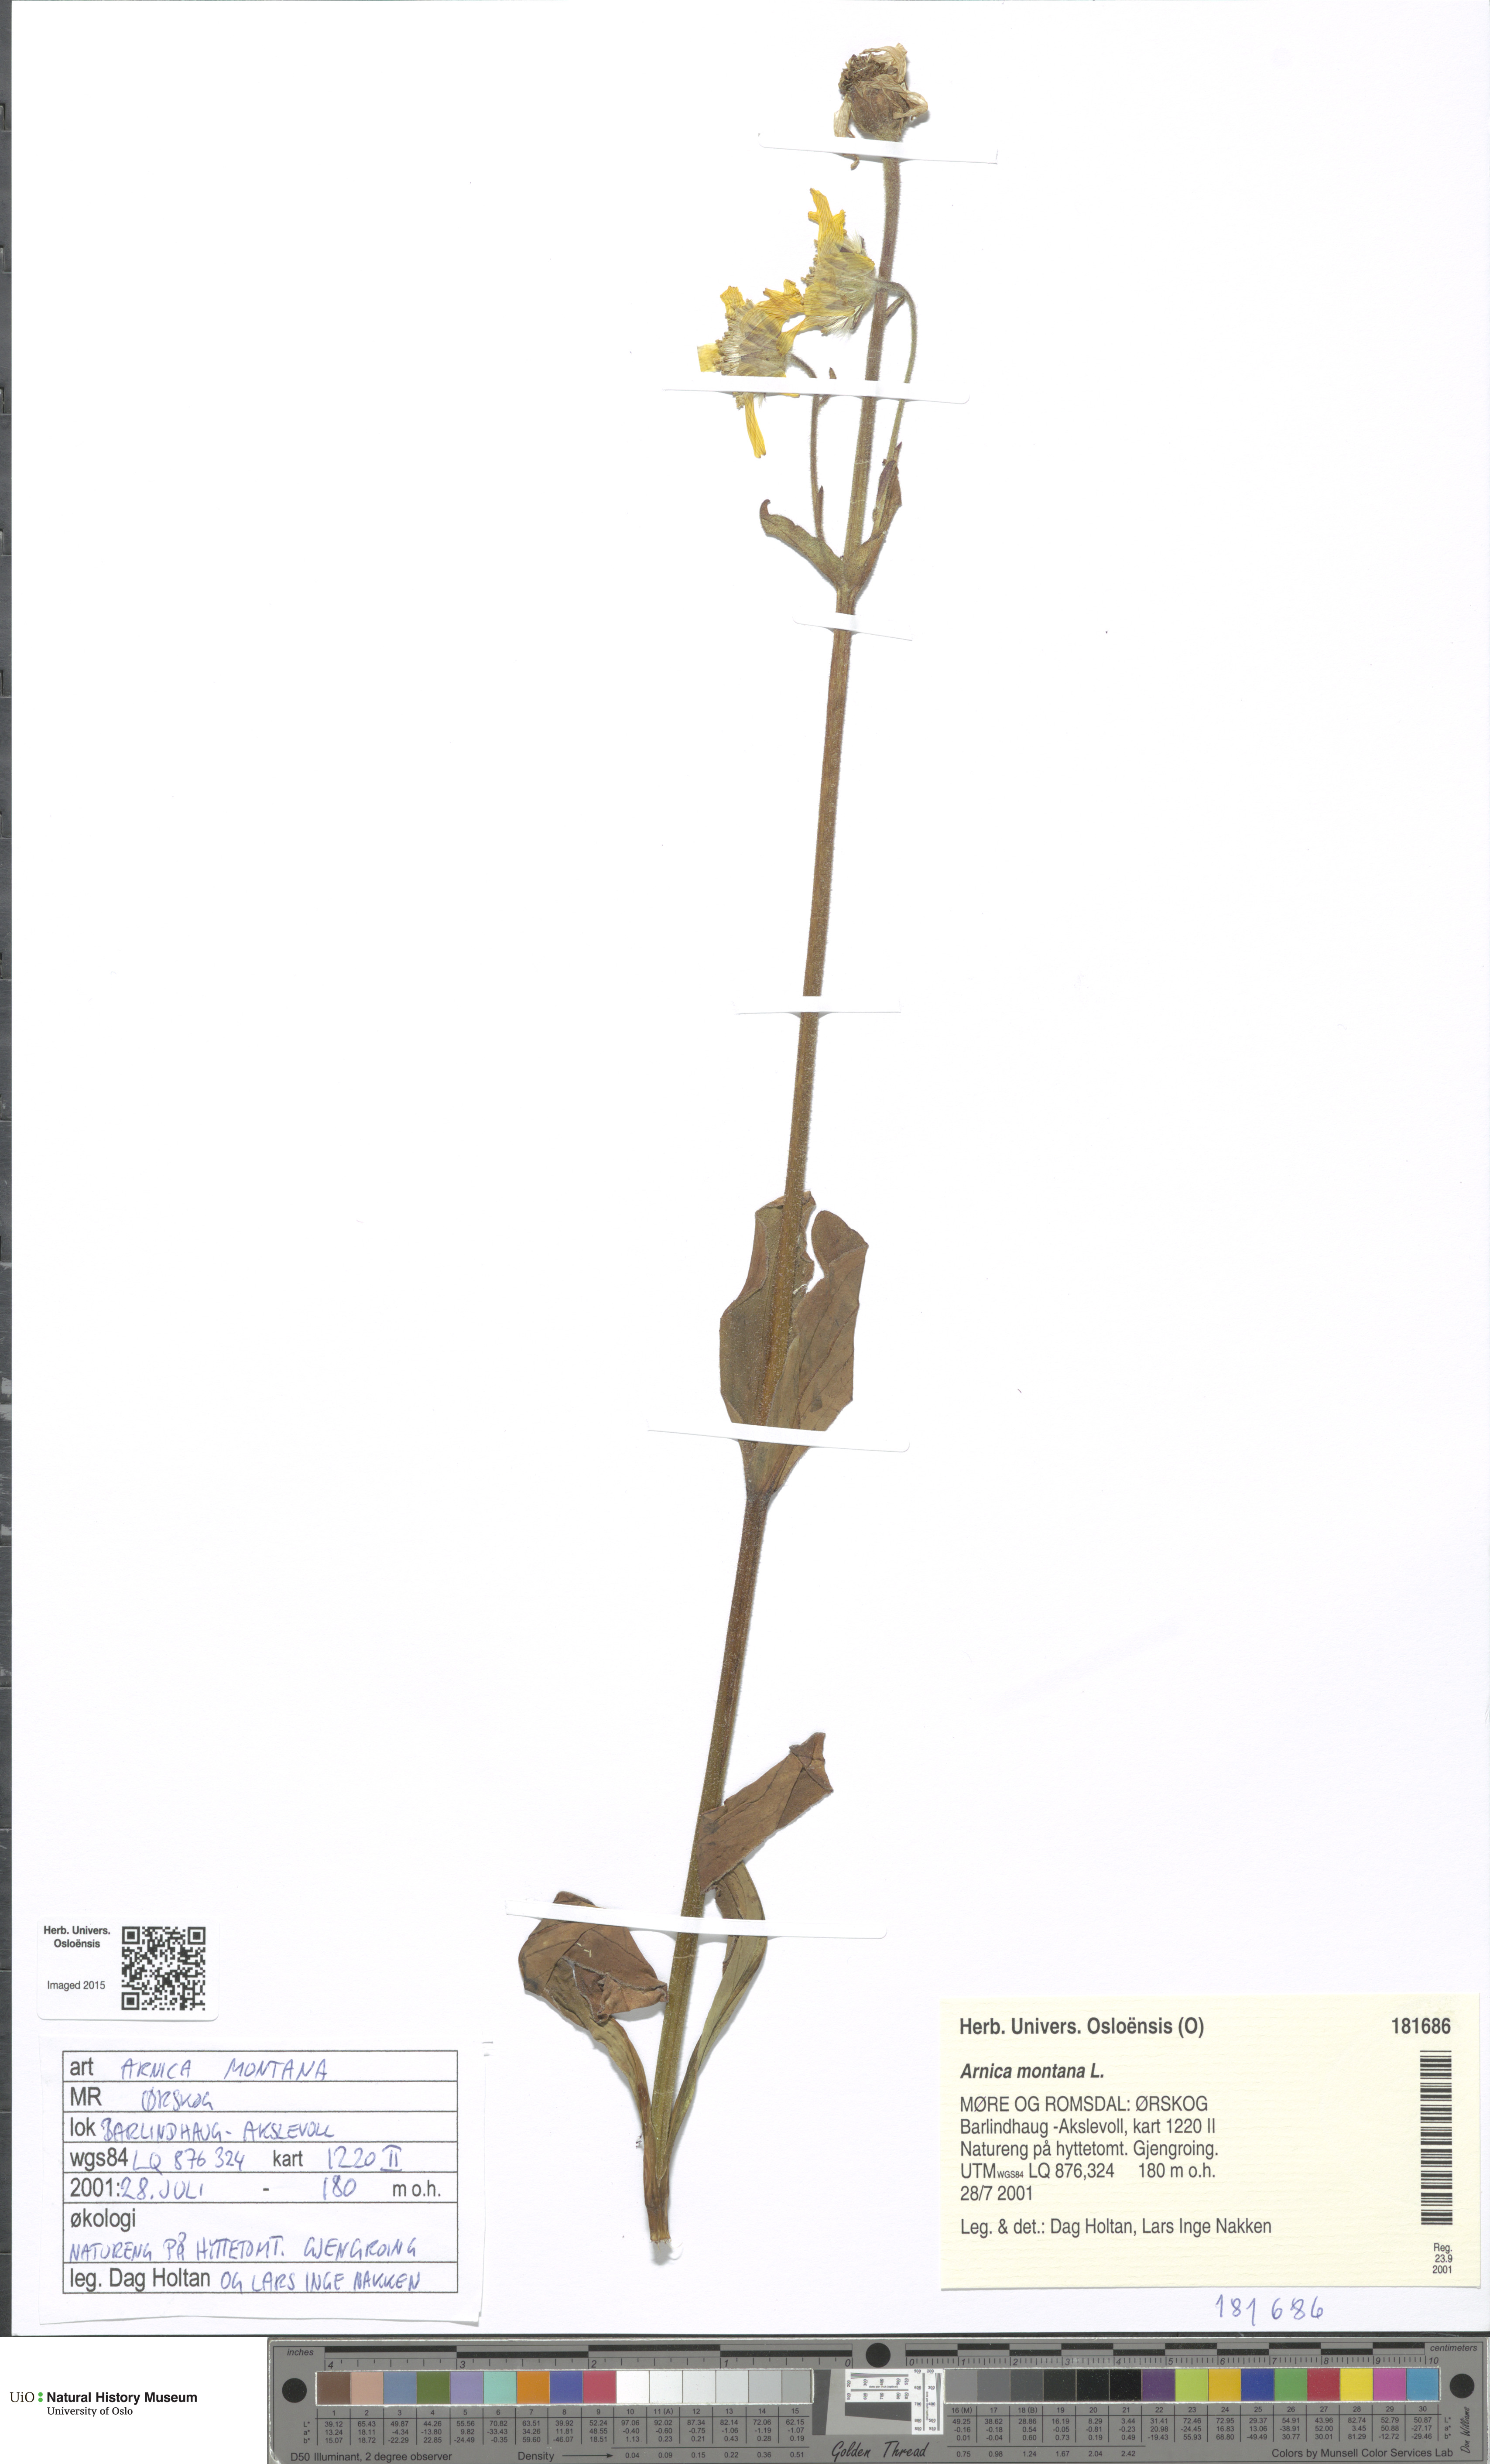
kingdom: Plantae
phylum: Tracheophyta
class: Magnoliopsida
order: Asterales
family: Asteraceae
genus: Arnica
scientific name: Arnica montana
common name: Leopard's bane
